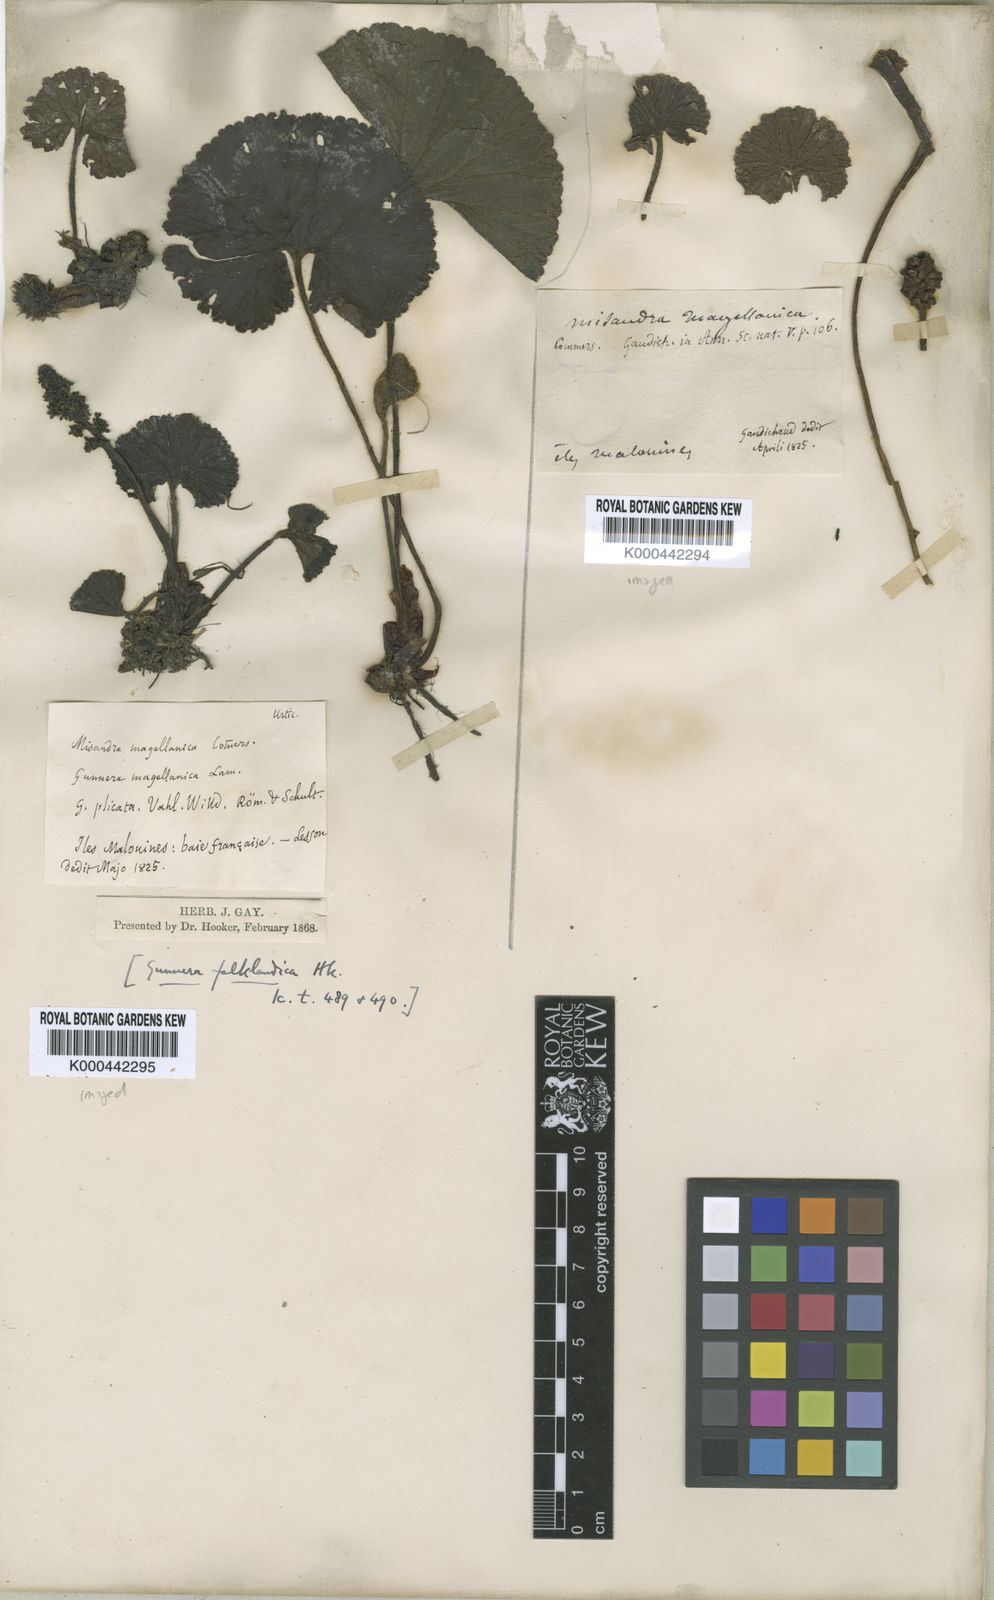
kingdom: Plantae
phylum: Tracheophyta
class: Magnoliopsida
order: Gunnerales
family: Gunneraceae
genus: Gunnera
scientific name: Gunnera magellanica
